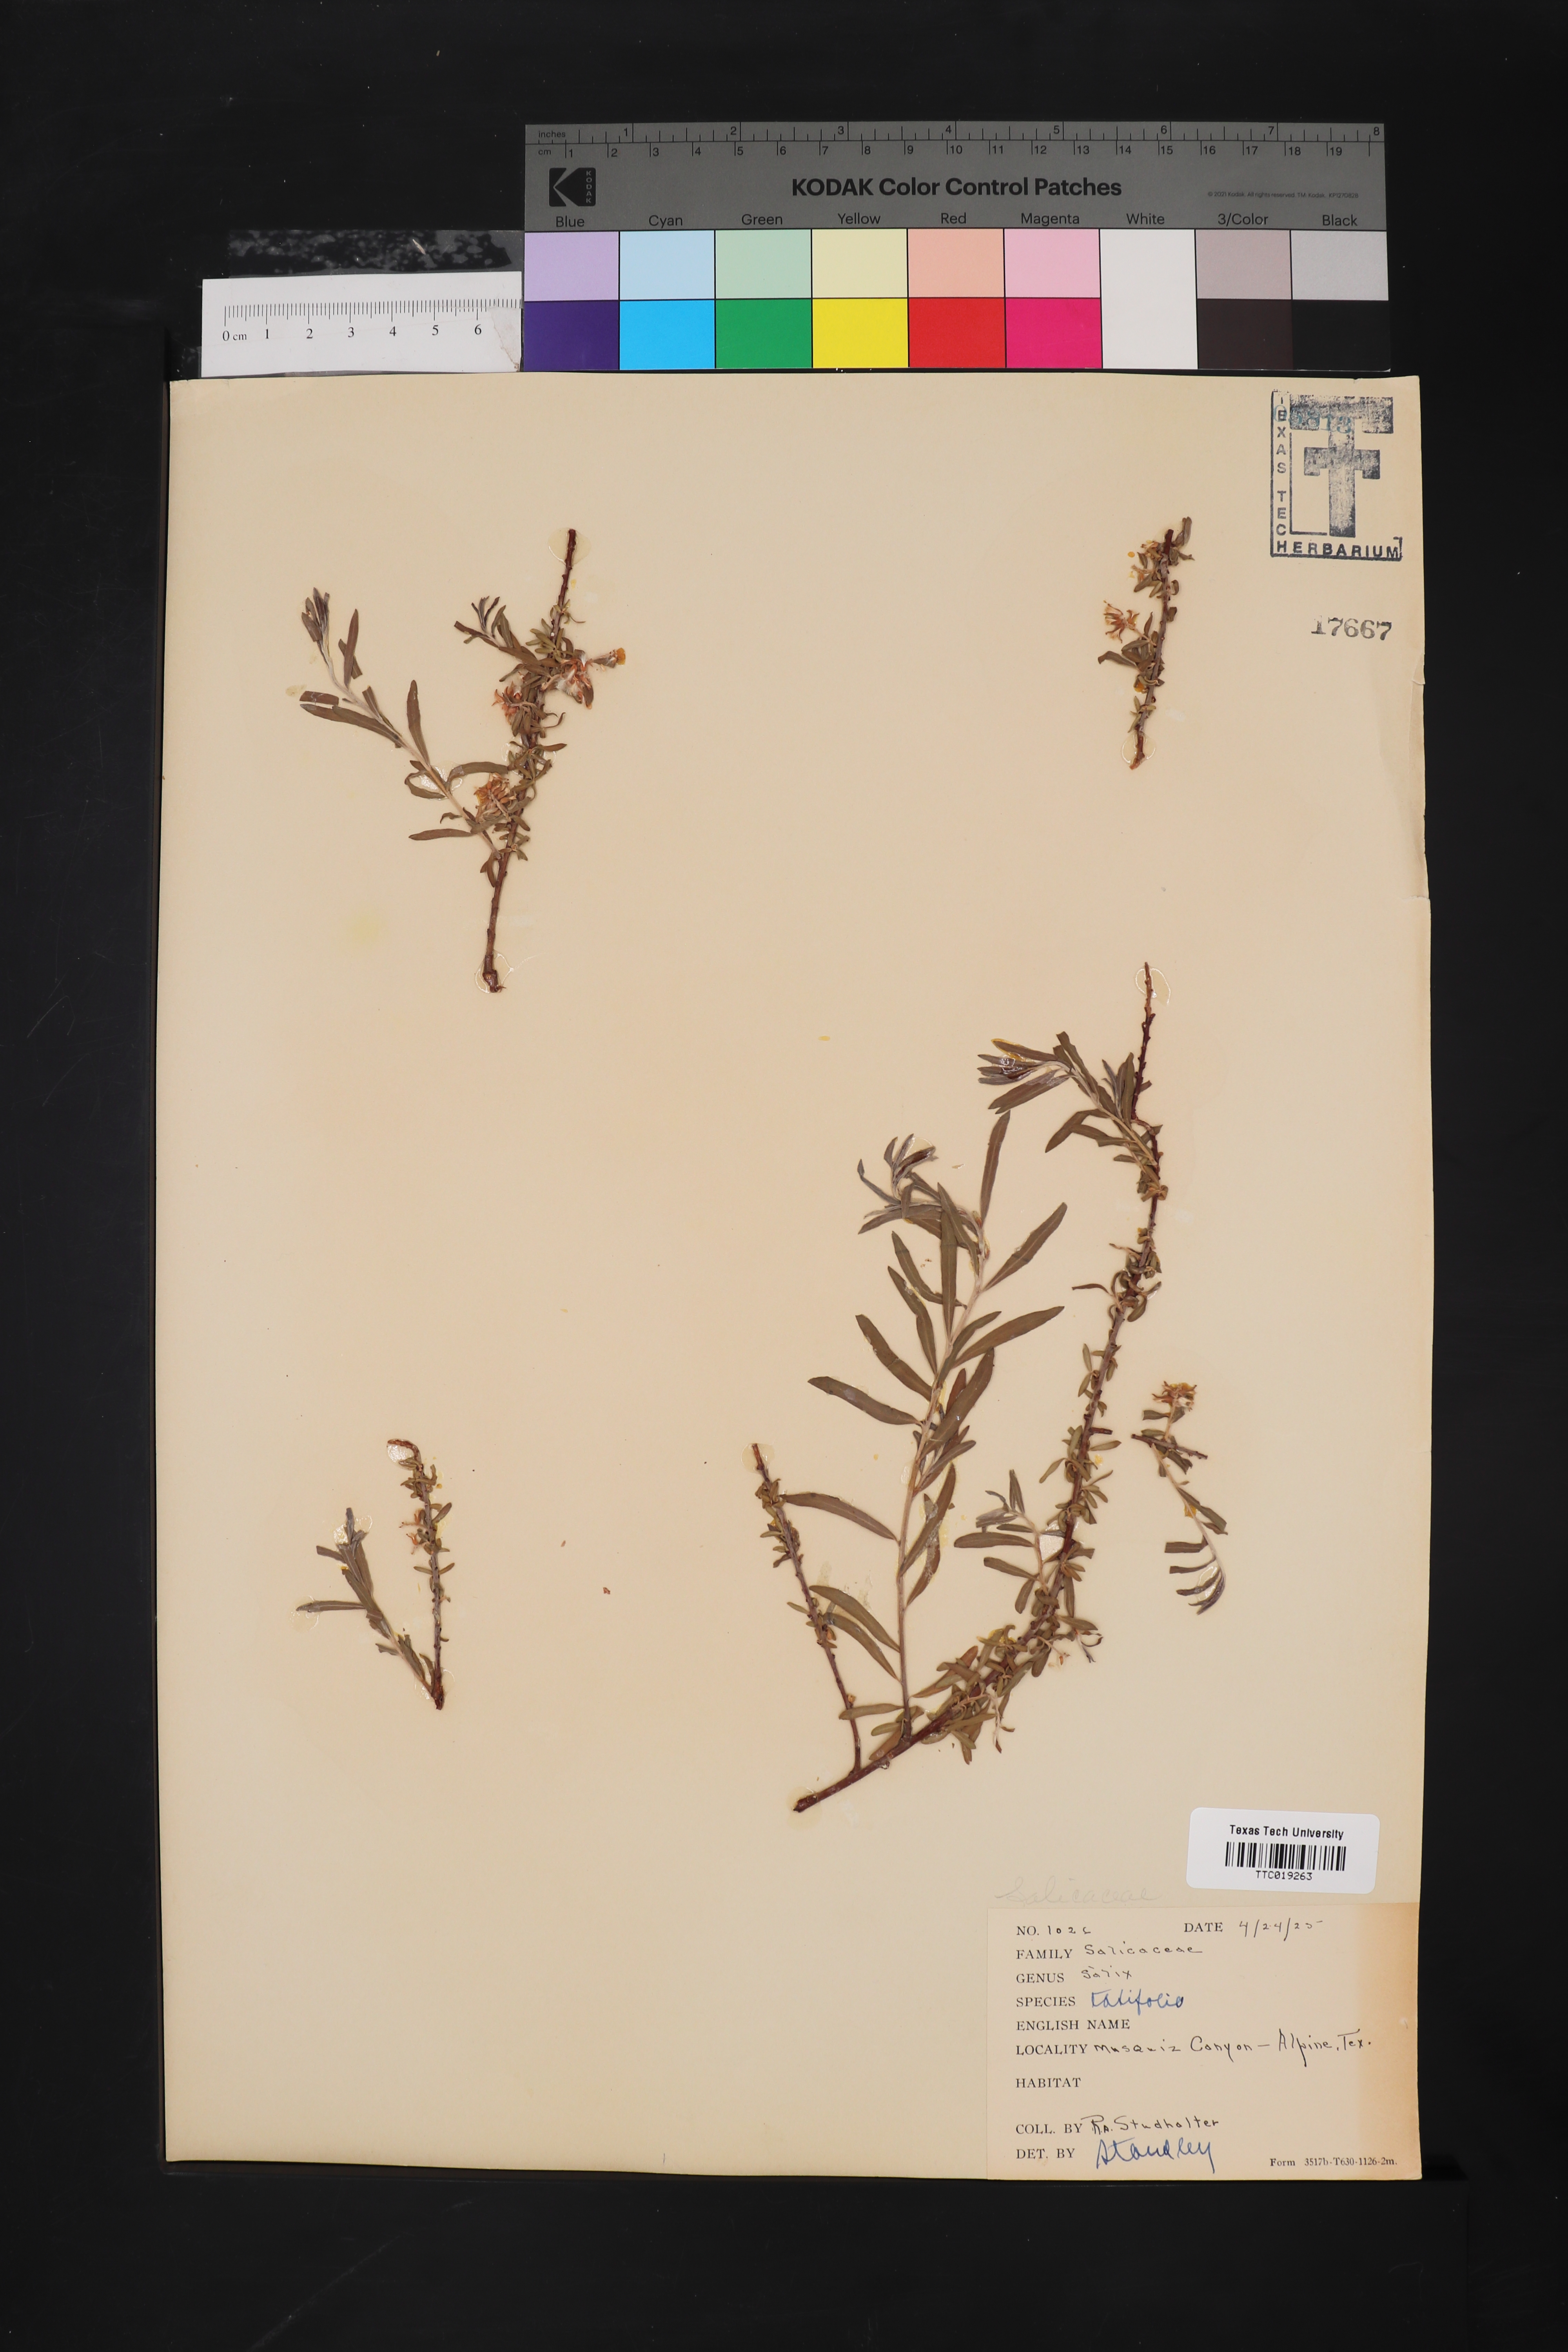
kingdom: Plantae
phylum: Tracheophyta
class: Magnoliopsida
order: Malpighiales
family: Salicaceae
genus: Salix
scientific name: Salix taxifolia
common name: Yew-leaf willow
